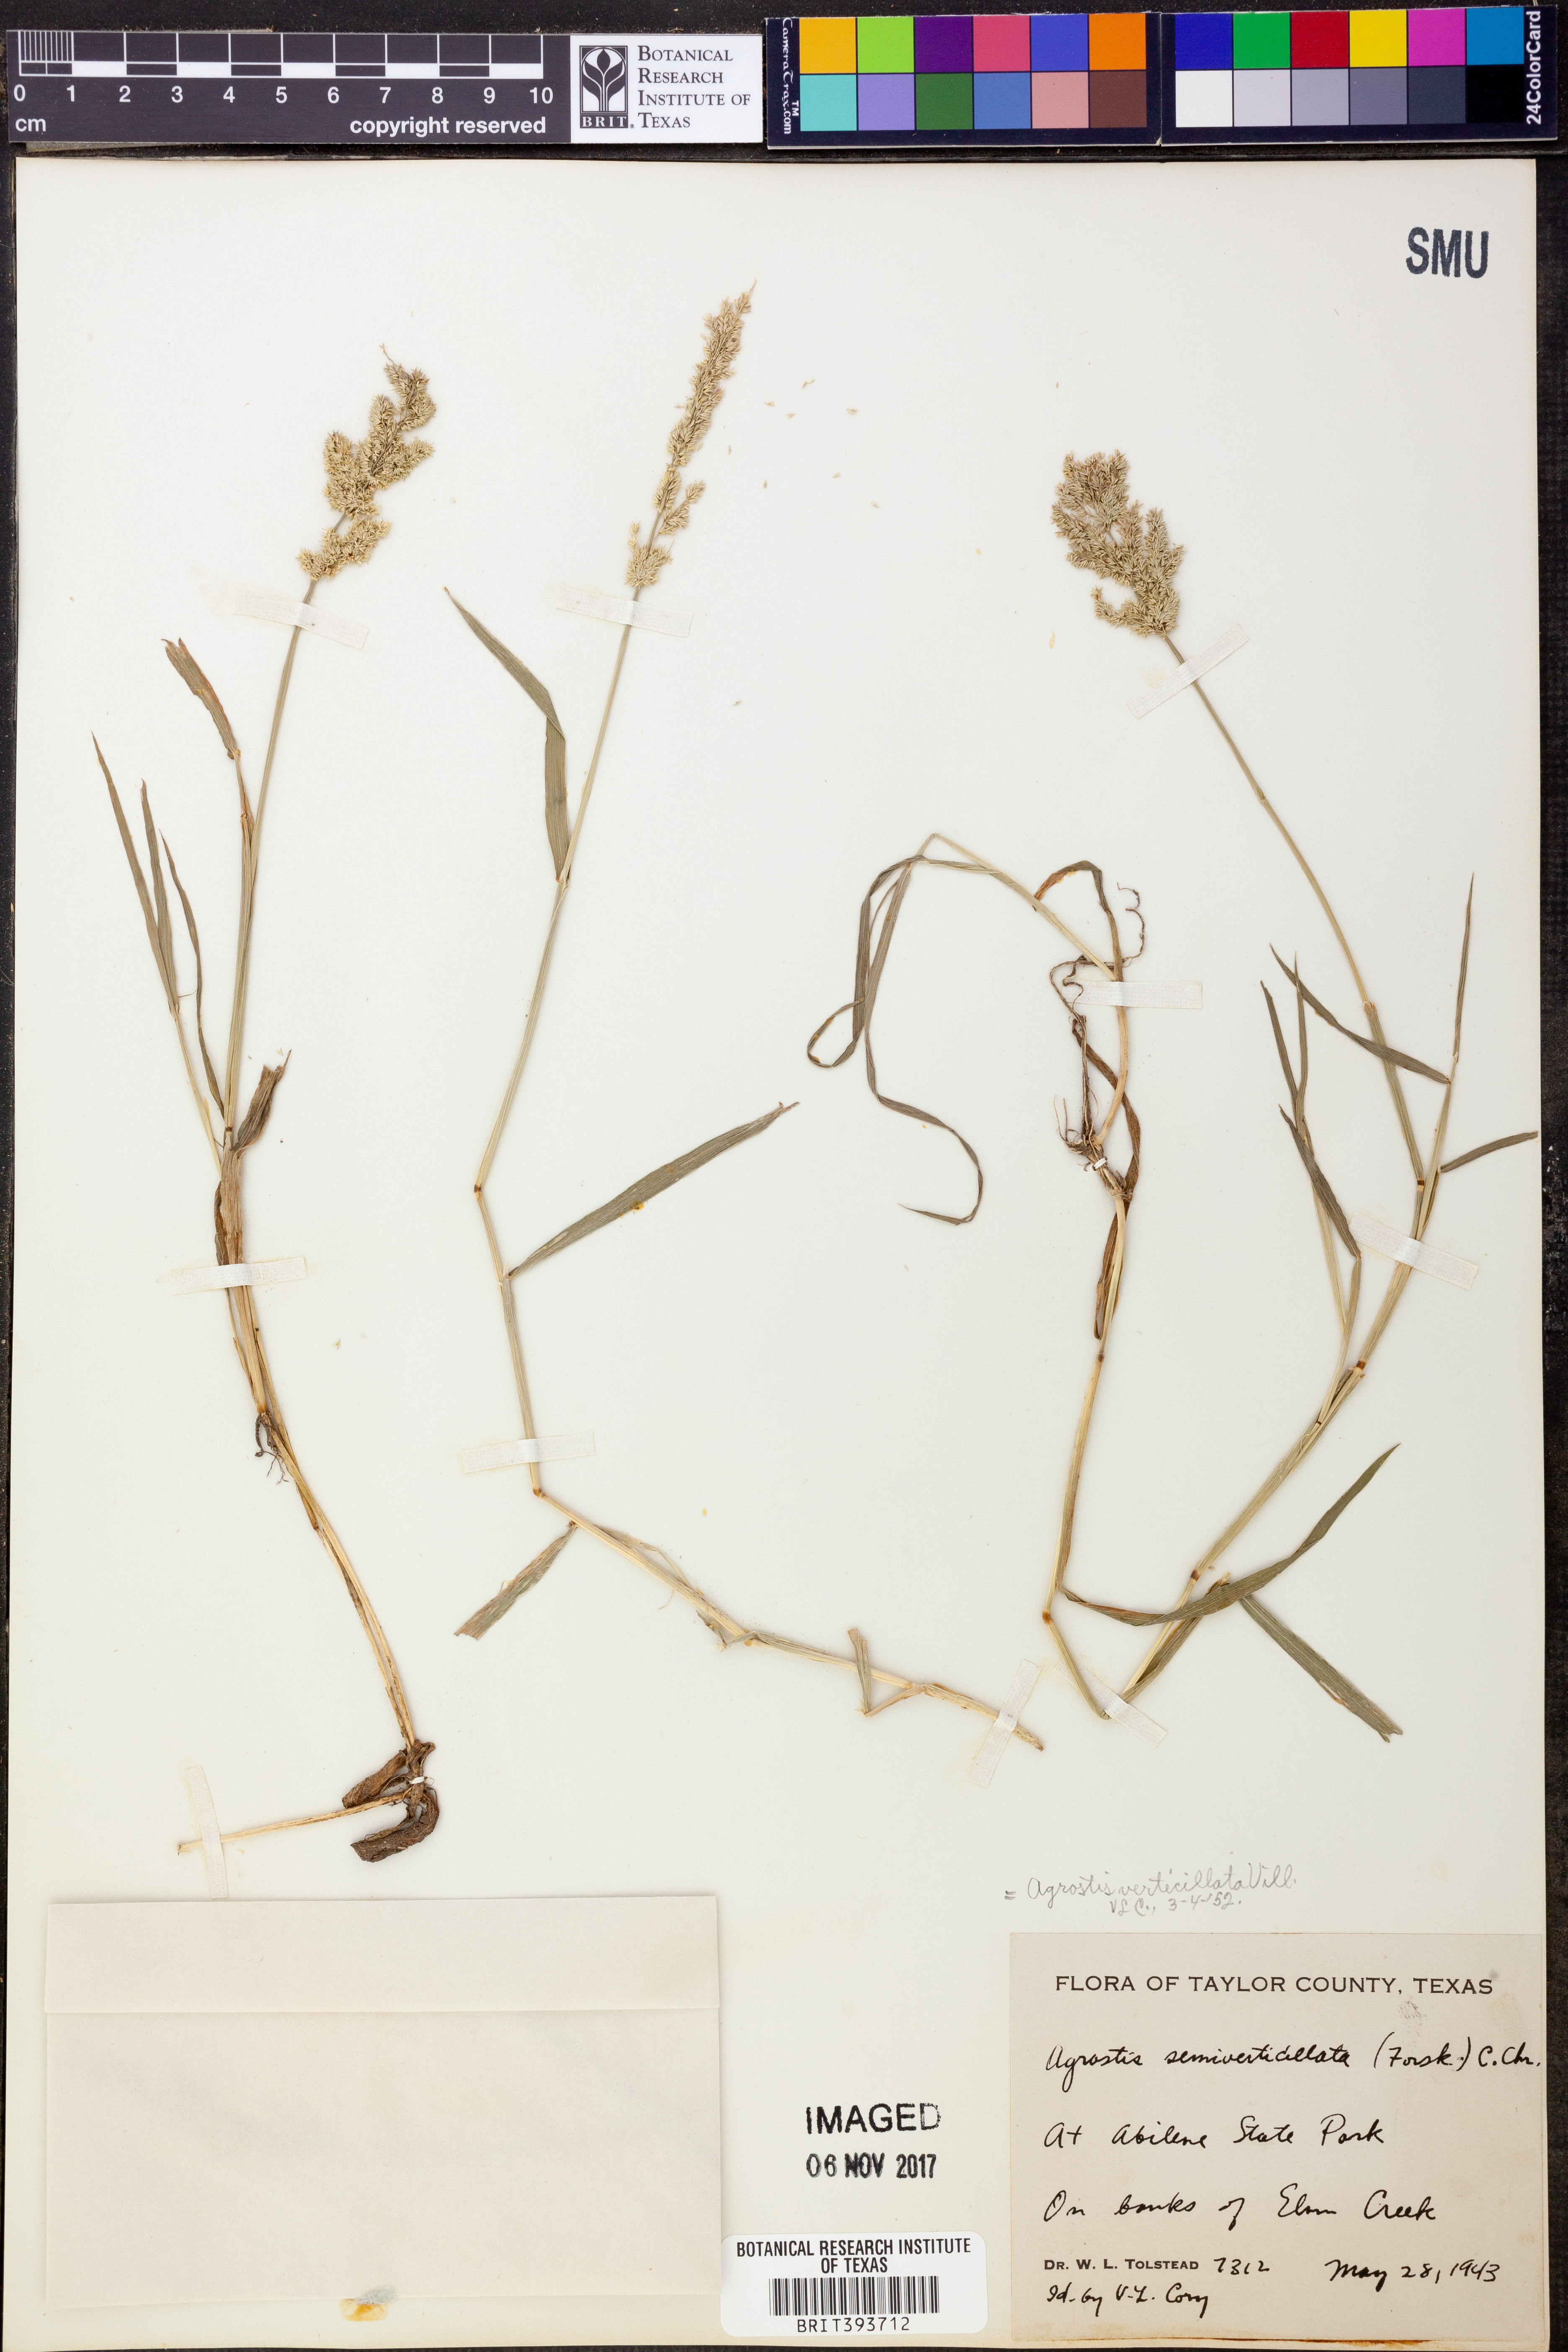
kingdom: Plantae
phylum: Tracheophyta
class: Liliopsida
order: Poales
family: Poaceae
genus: Polypogon
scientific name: Polypogon viridis
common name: Water bent
